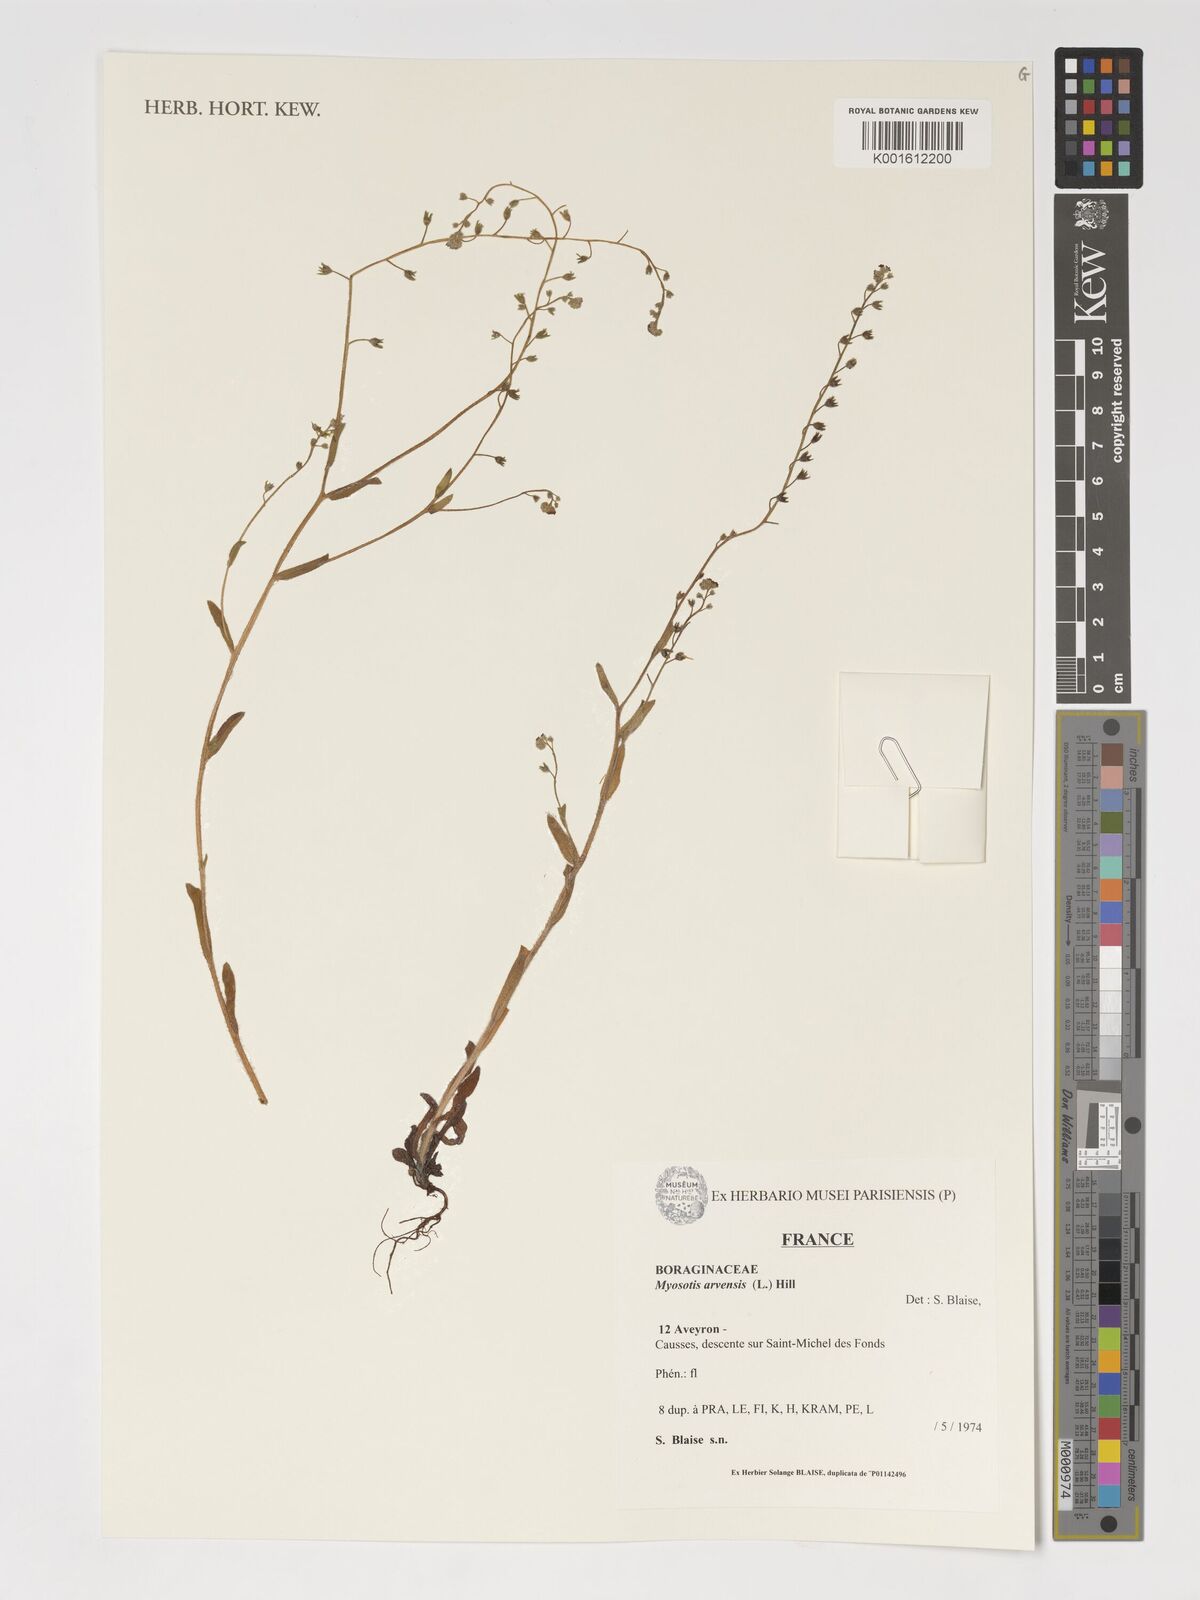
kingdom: Plantae
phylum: Tracheophyta
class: Magnoliopsida
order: Boraginales
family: Boraginaceae
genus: Myosotis
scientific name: Myosotis arvensis
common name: Field forget-me-not
